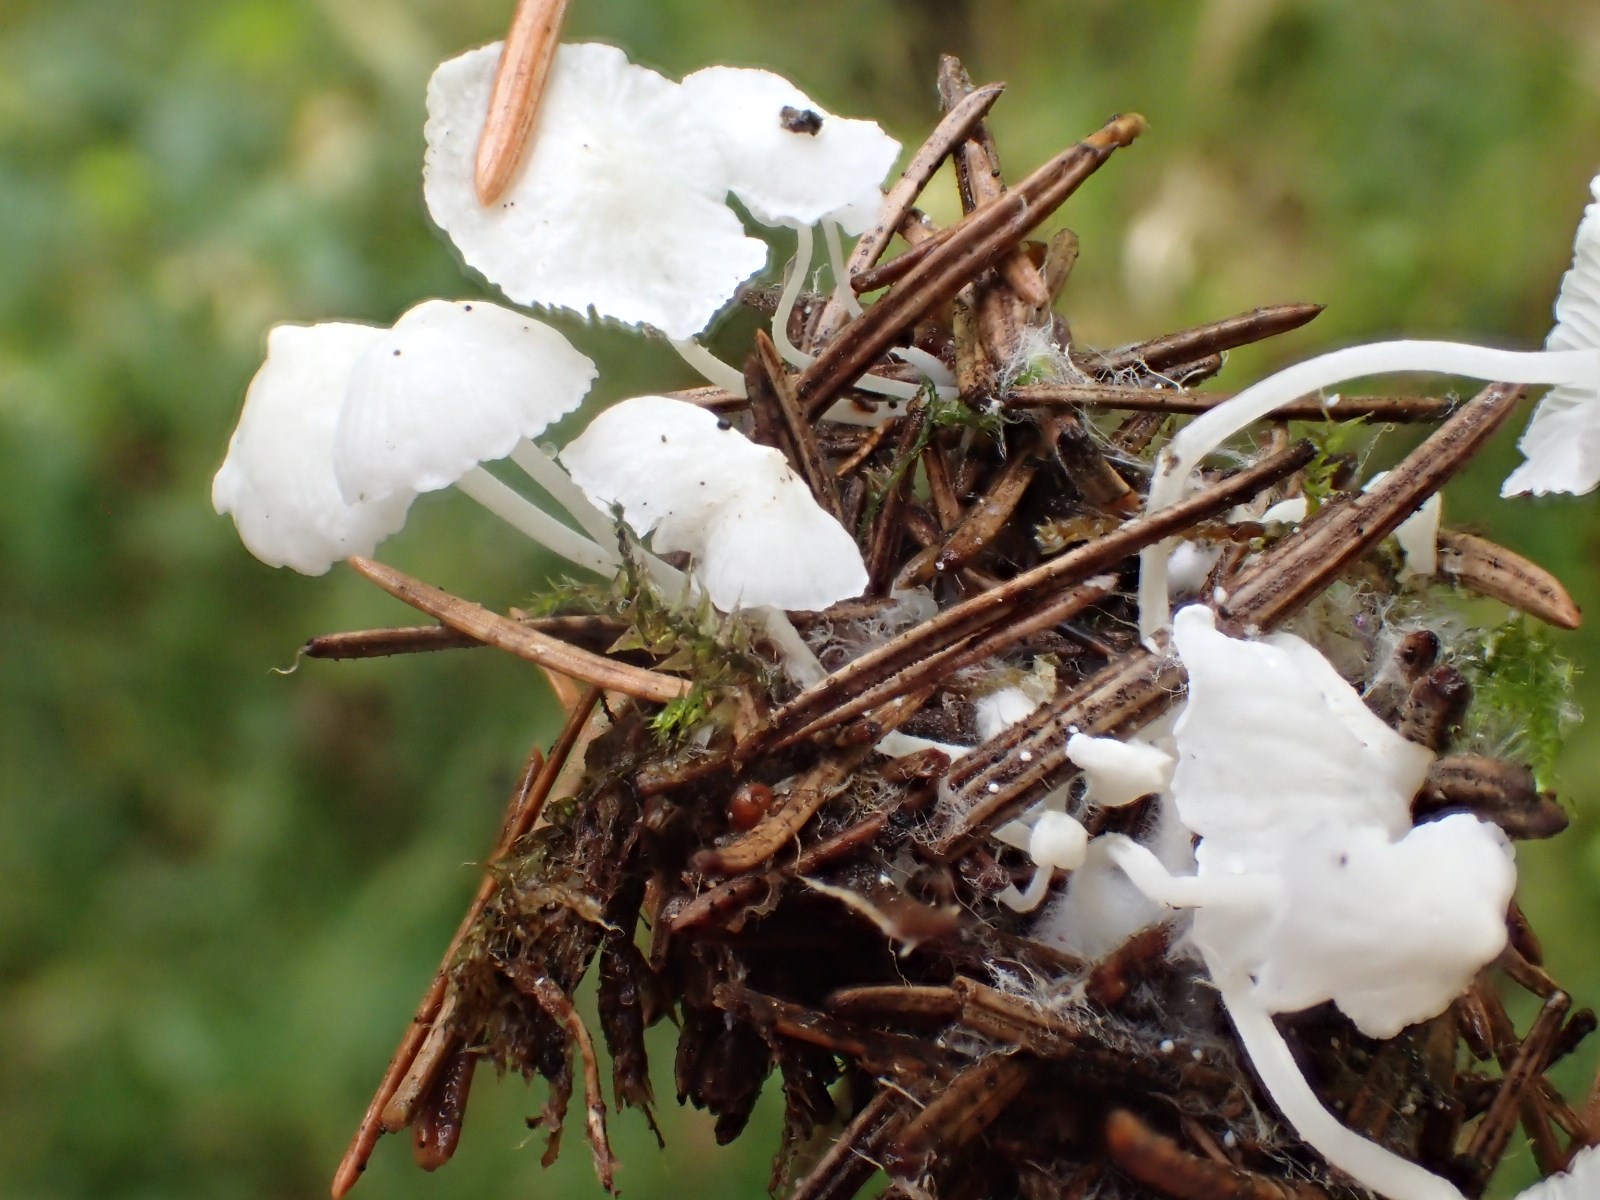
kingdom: Fungi
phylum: Basidiomycota
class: Agaricomycetes
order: Agaricales
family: Mycenaceae
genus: Hemimycena
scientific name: Hemimycena lactea
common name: mælkehvid huesvamp
